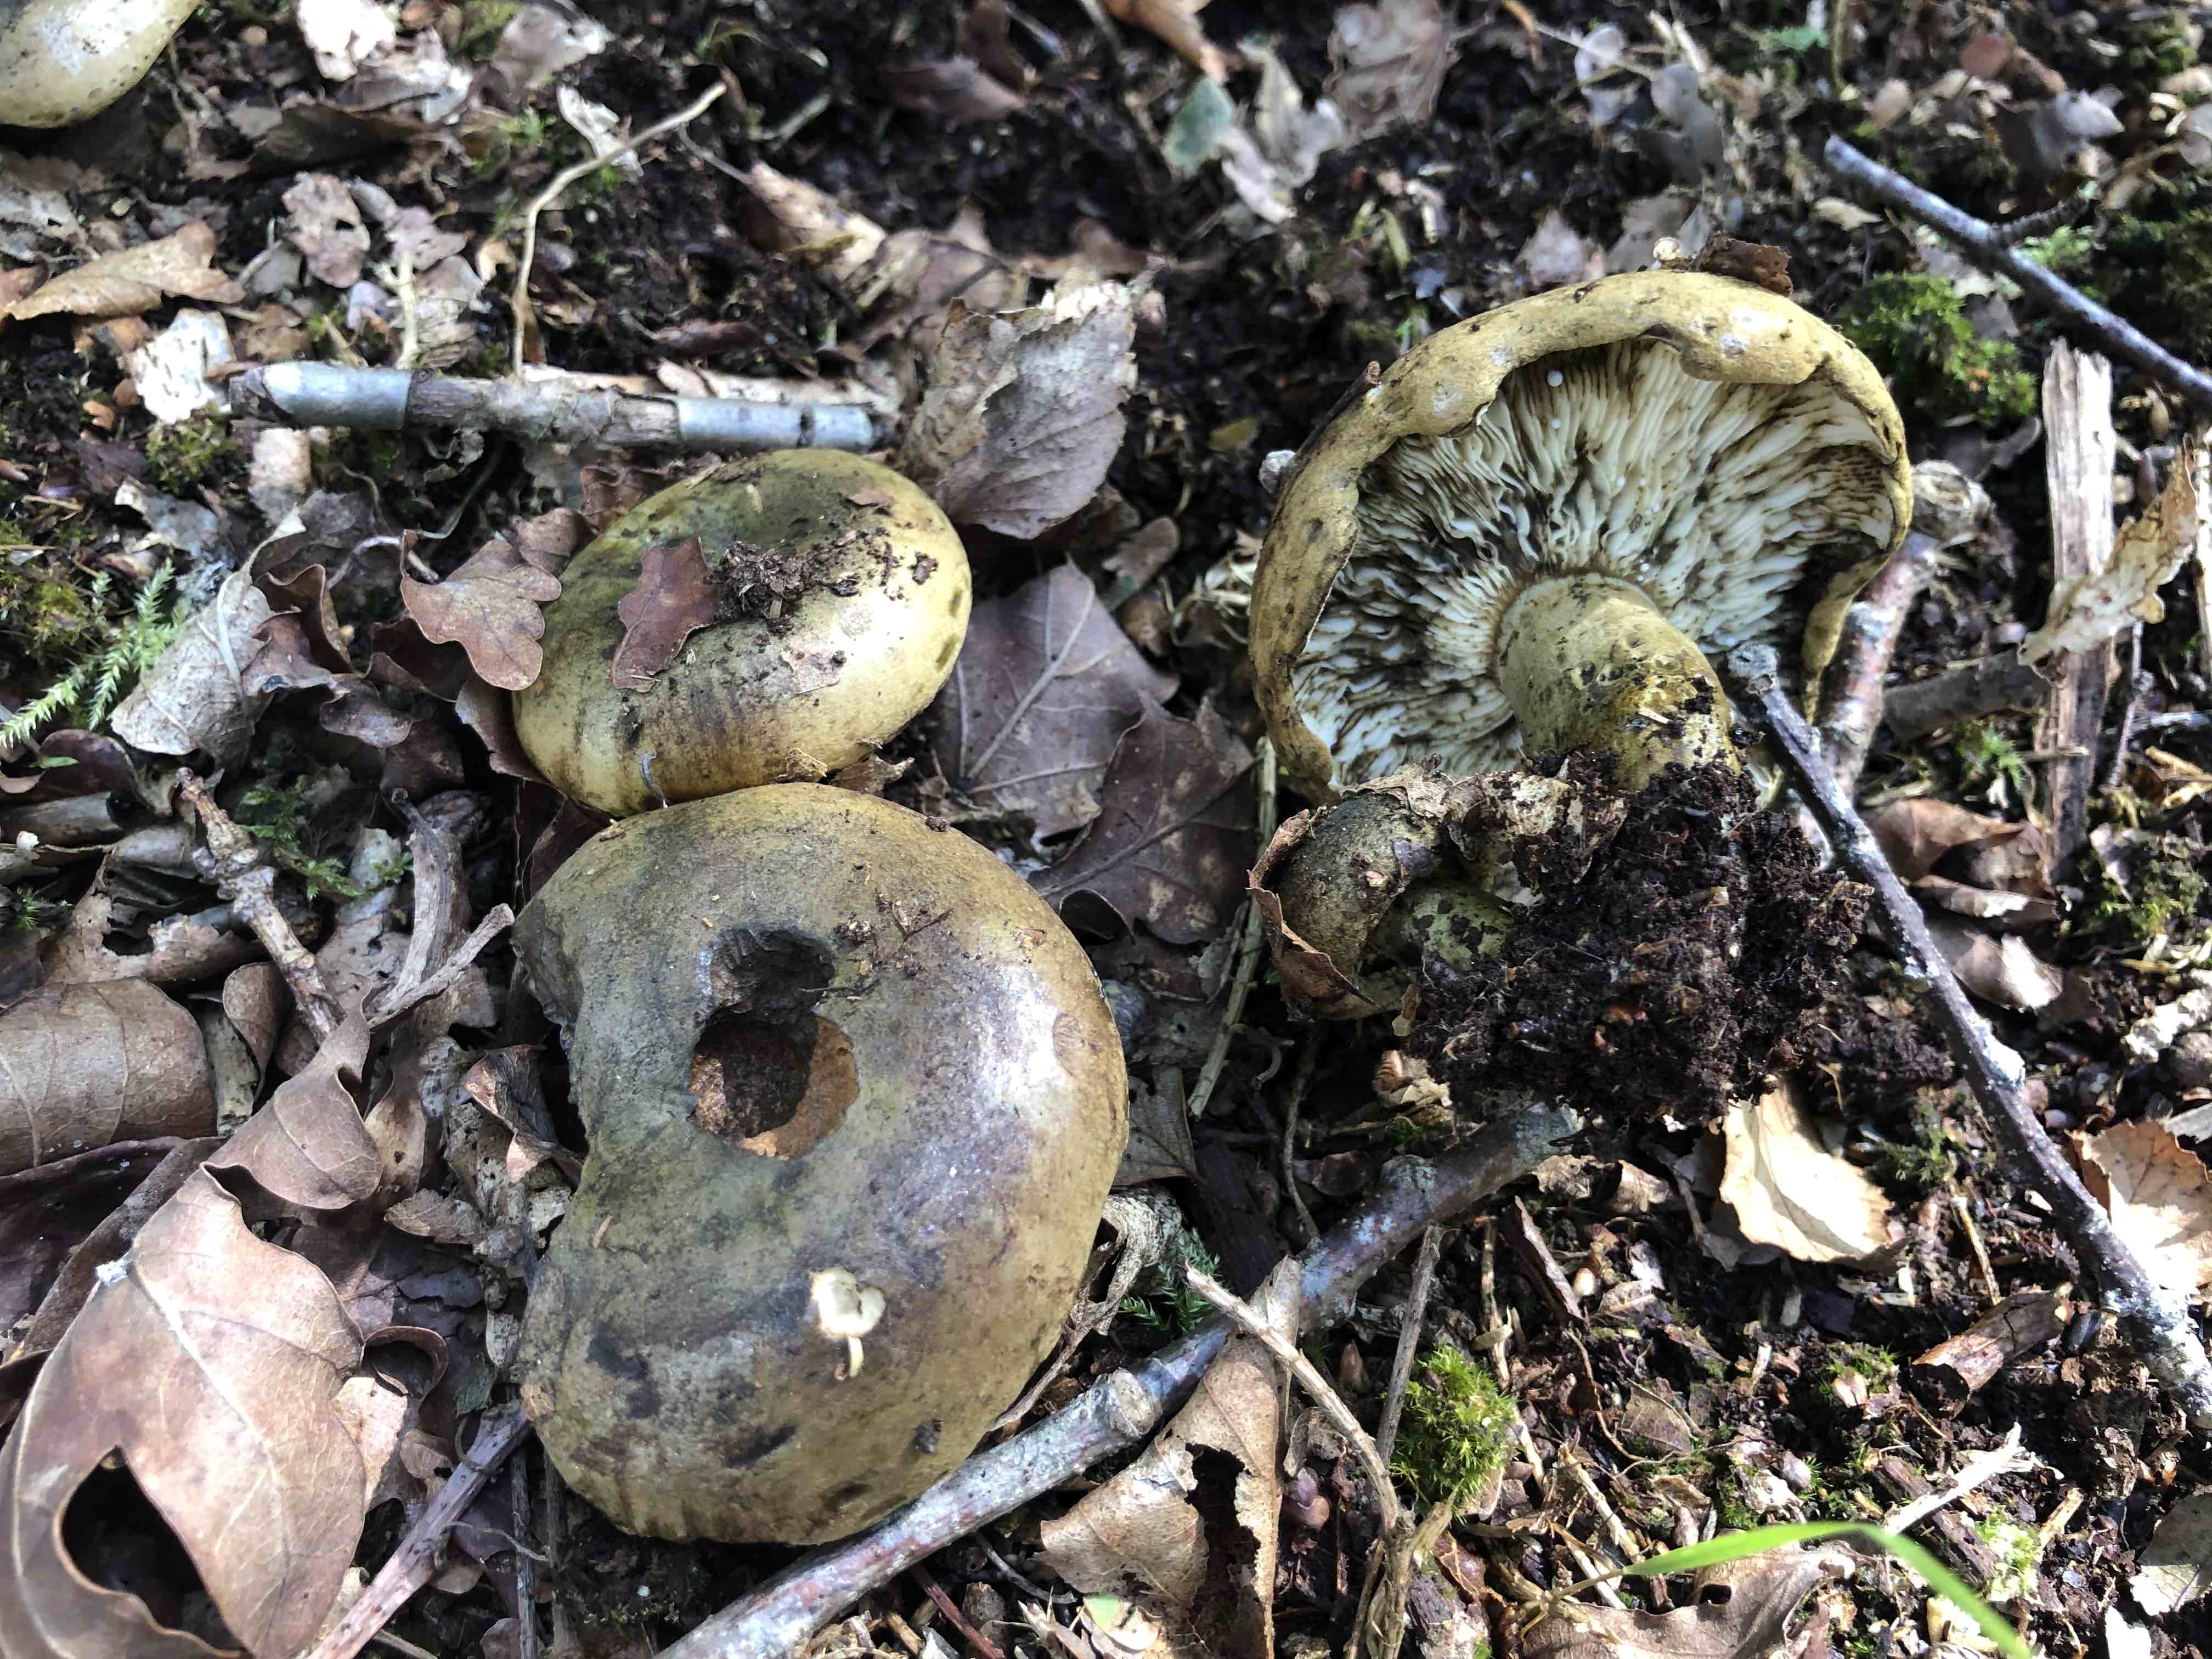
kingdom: Fungi
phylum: Basidiomycota
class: Agaricomycetes
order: Russulales
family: Russulaceae
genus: Lactarius
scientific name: Lactarius necator
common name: manddraber-mælkehat
